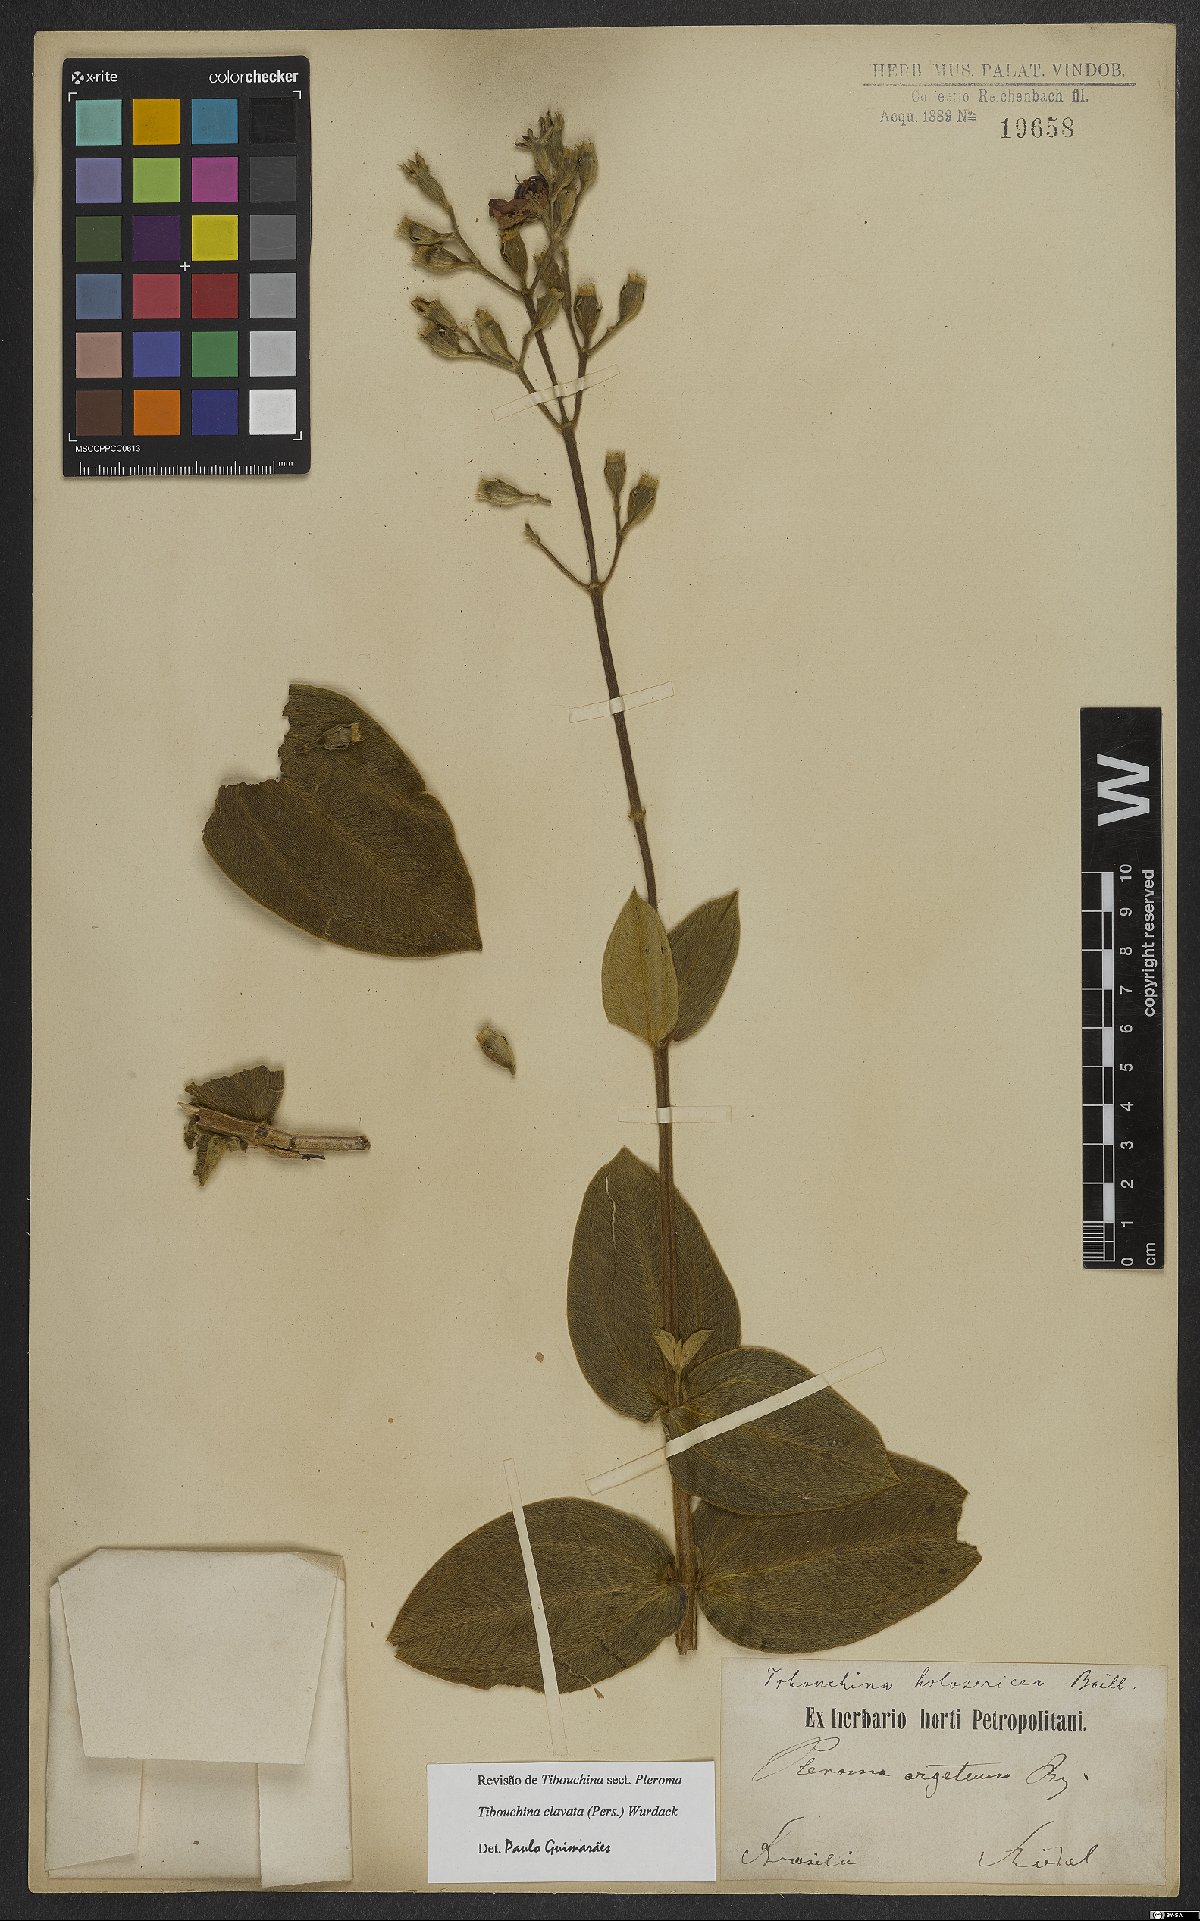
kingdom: Plantae
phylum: Tracheophyta
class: Magnoliopsida
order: Myrtales
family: Melastomataceae
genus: Pleroma
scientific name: Pleroma clavatum
